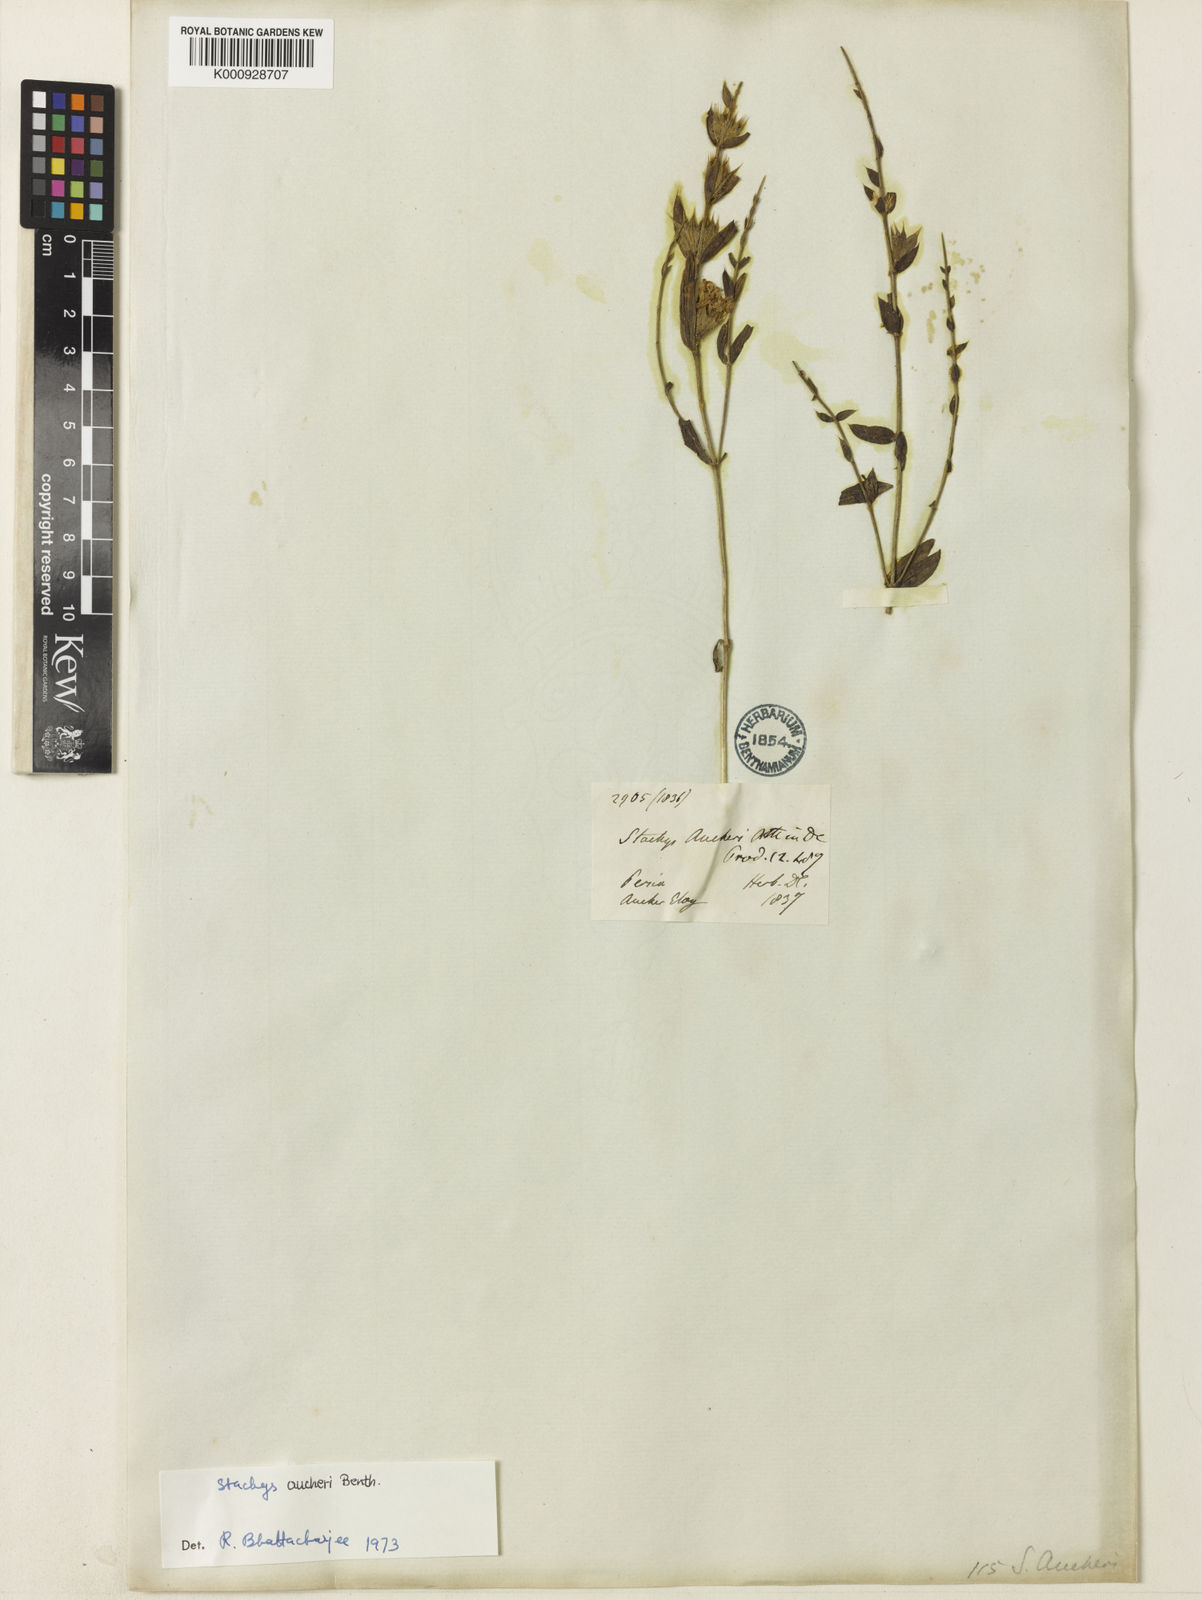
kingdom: Plantae
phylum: Tracheophyta
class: Magnoliopsida
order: Lamiales
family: Lamiaceae
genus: Stachys
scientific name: Stachys aucheri
